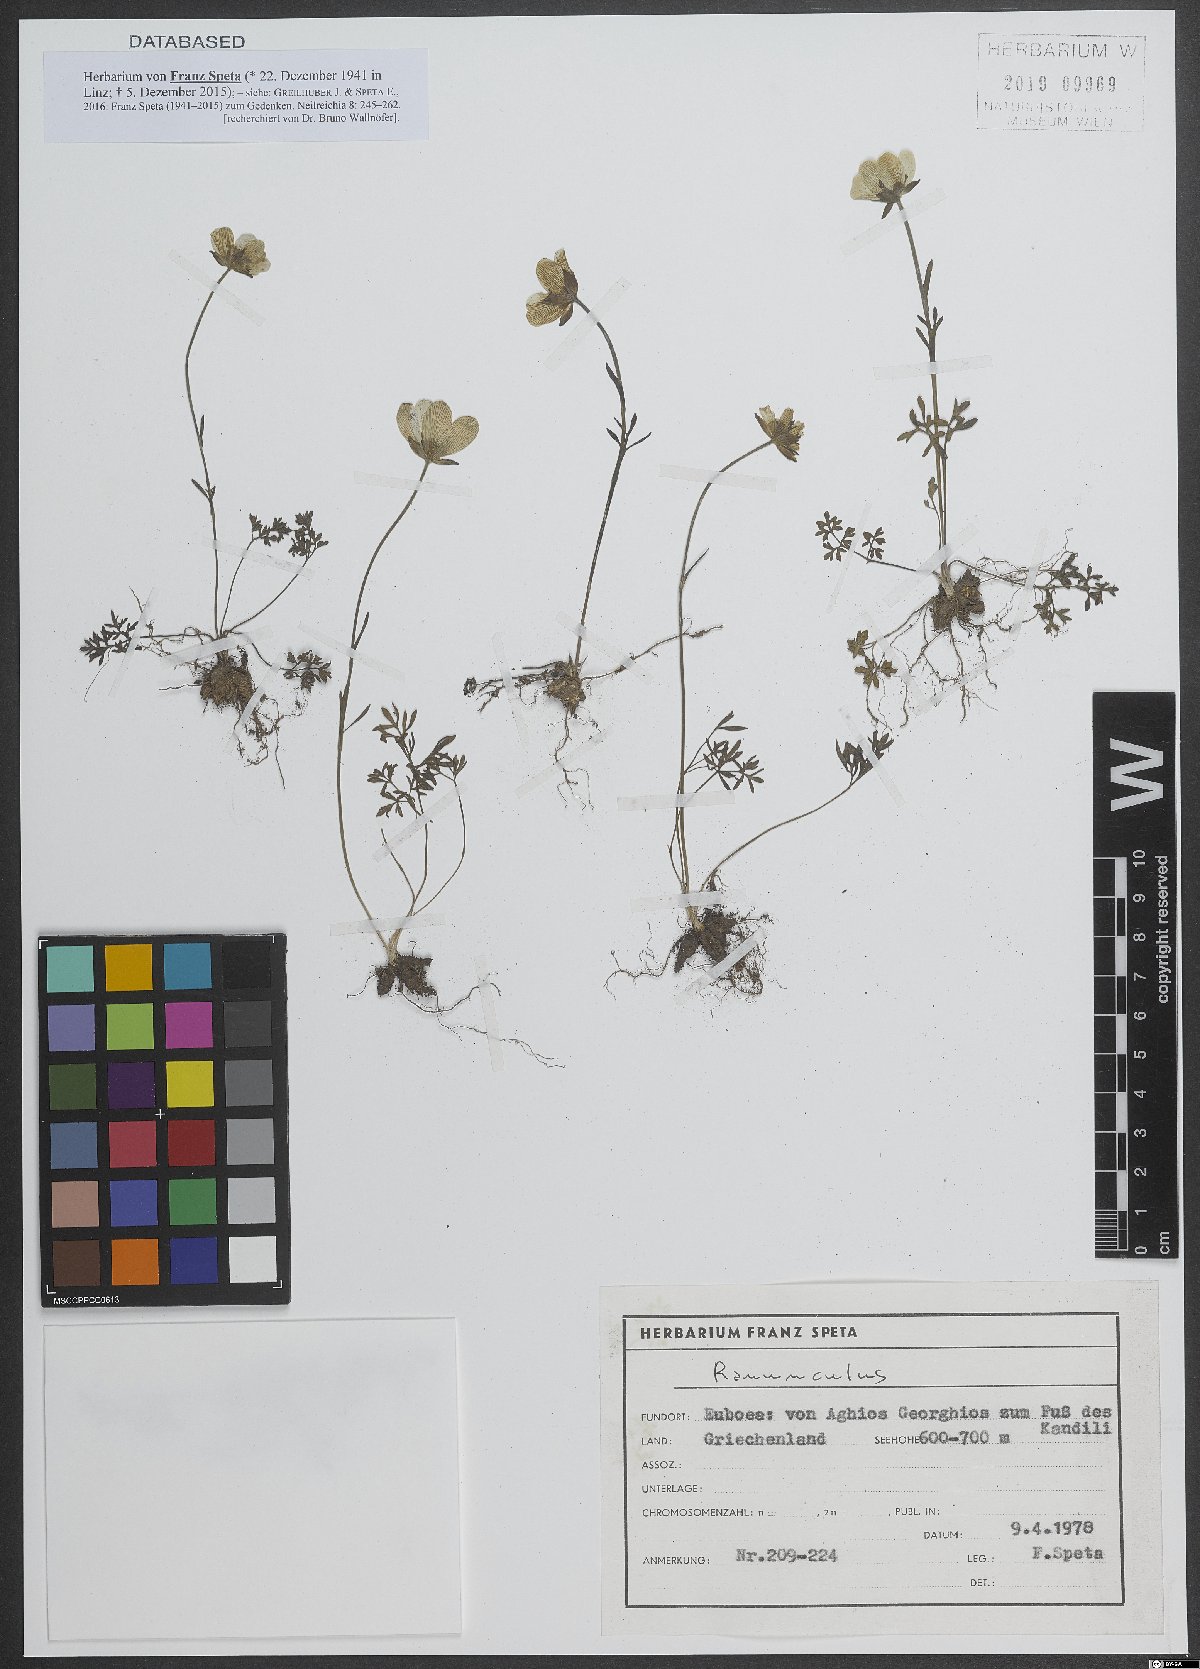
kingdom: Plantae
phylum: Tracheophyta
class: Magnoliopsida
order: Ranunculales
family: Ranunculaceae
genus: Ranunculus
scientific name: Ranunculus
